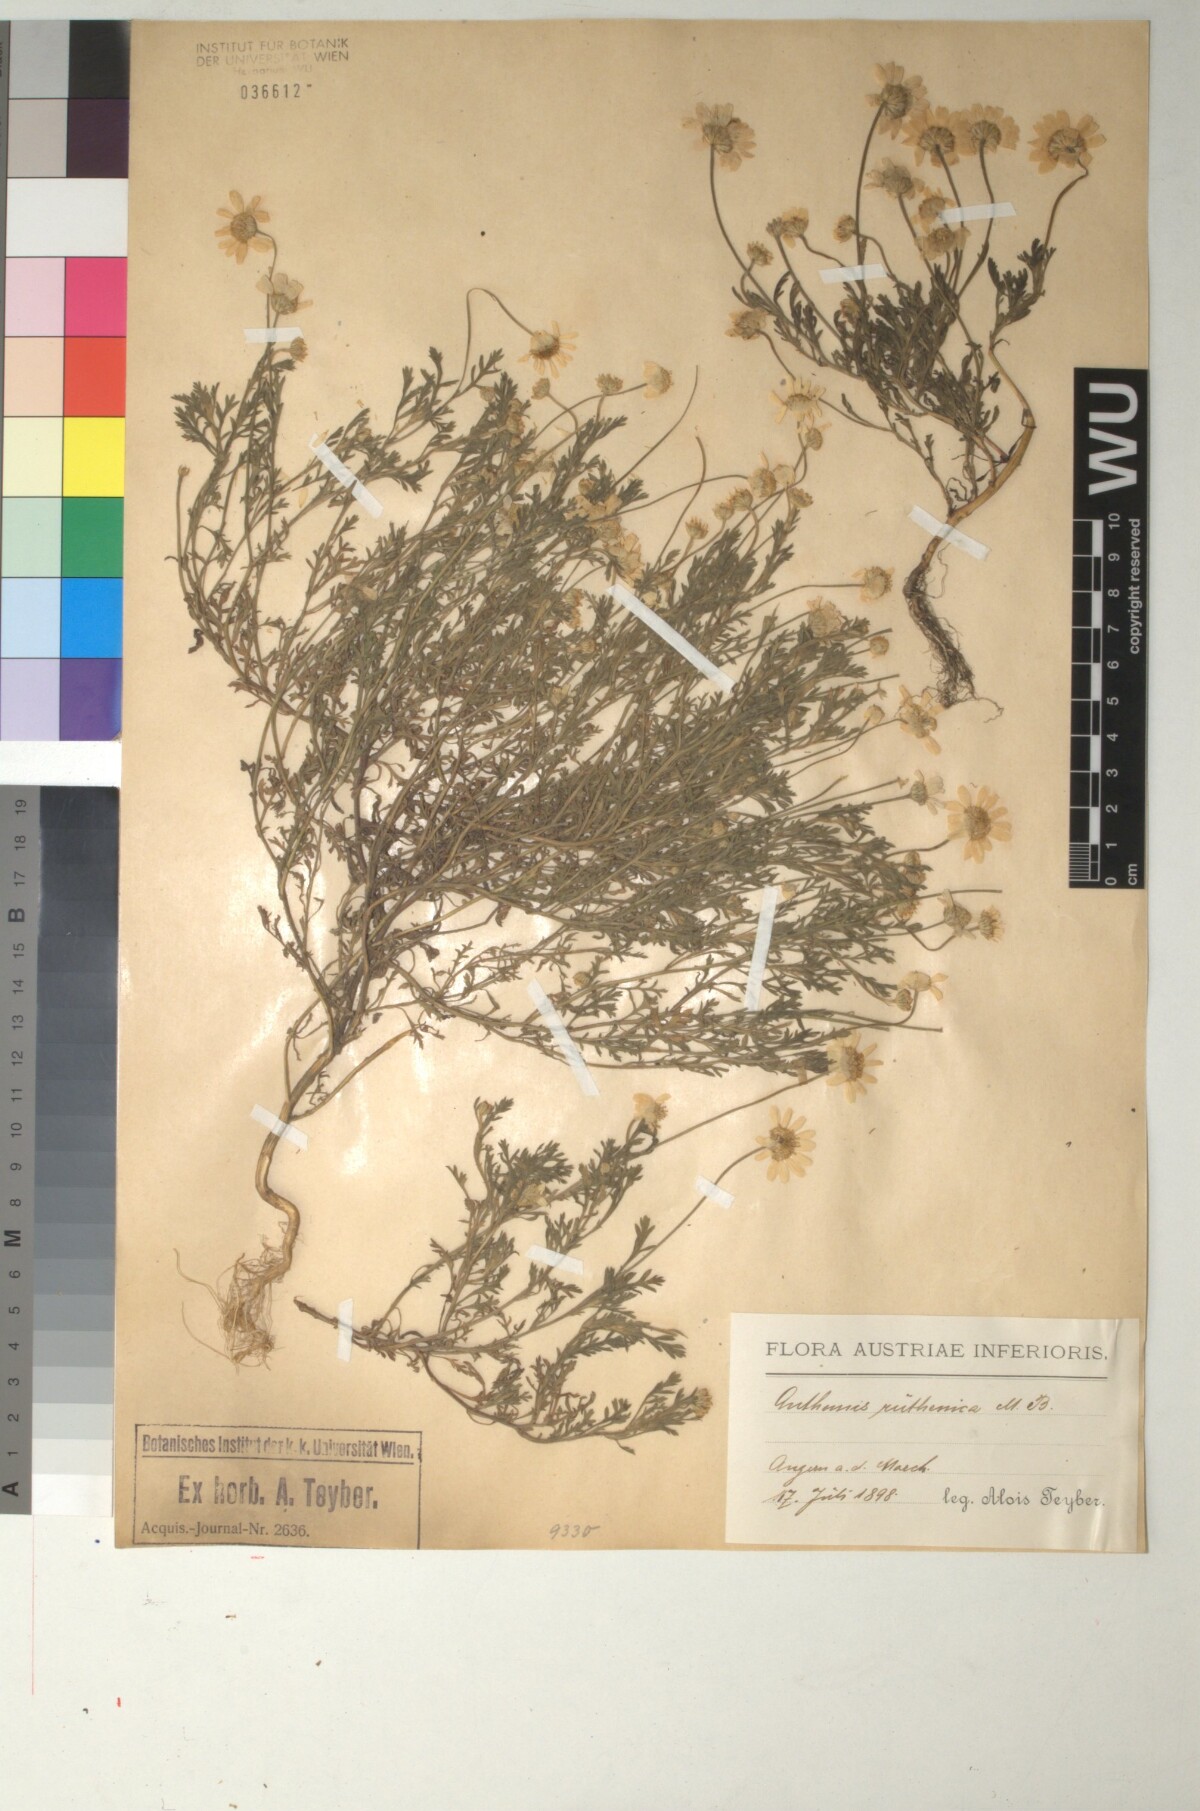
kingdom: Plantae
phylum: Tracheophyta
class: Magnoliopsida
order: Asterales
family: Asteraceae
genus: Anthemis
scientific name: Anthemis ruthenica
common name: Eastern chamomile
